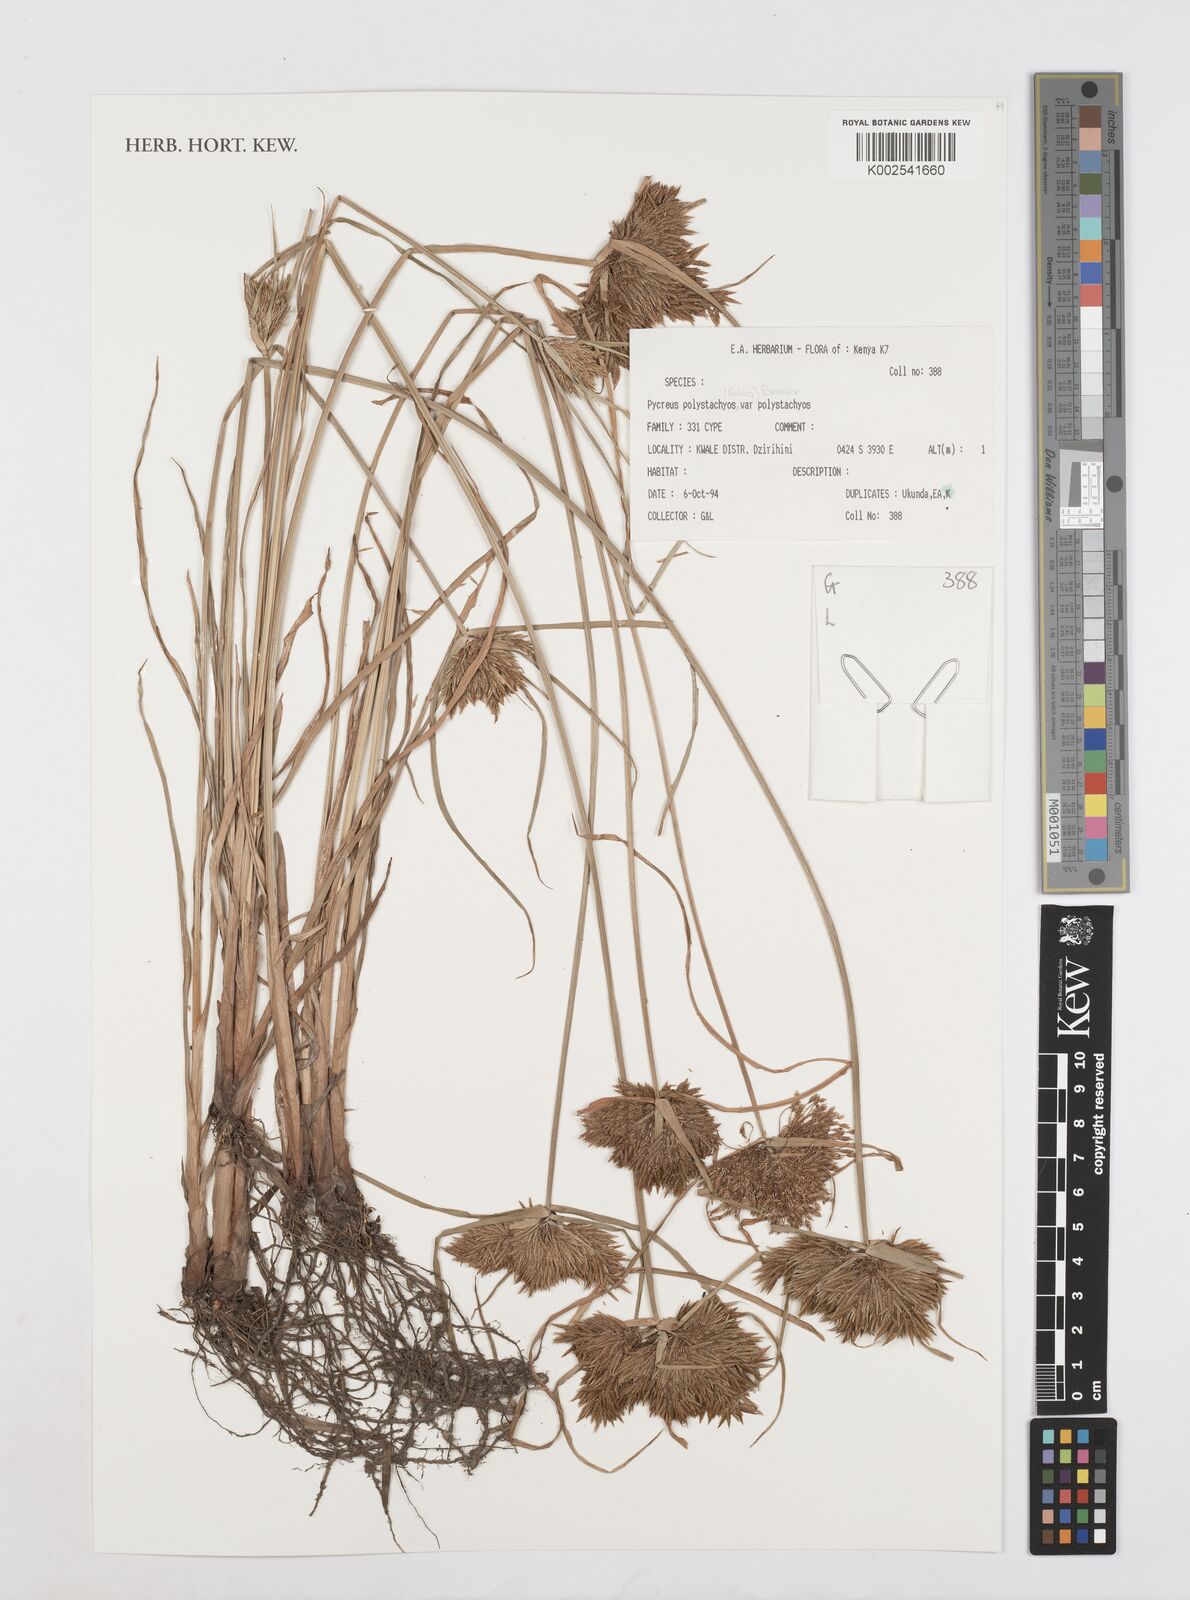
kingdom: Plantae
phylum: Tracheophyta
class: Liliopsida
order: Poales
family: Cyperaceae
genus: Cyperus
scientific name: Cyperus polystachyos
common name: Bunchy flat sedge
